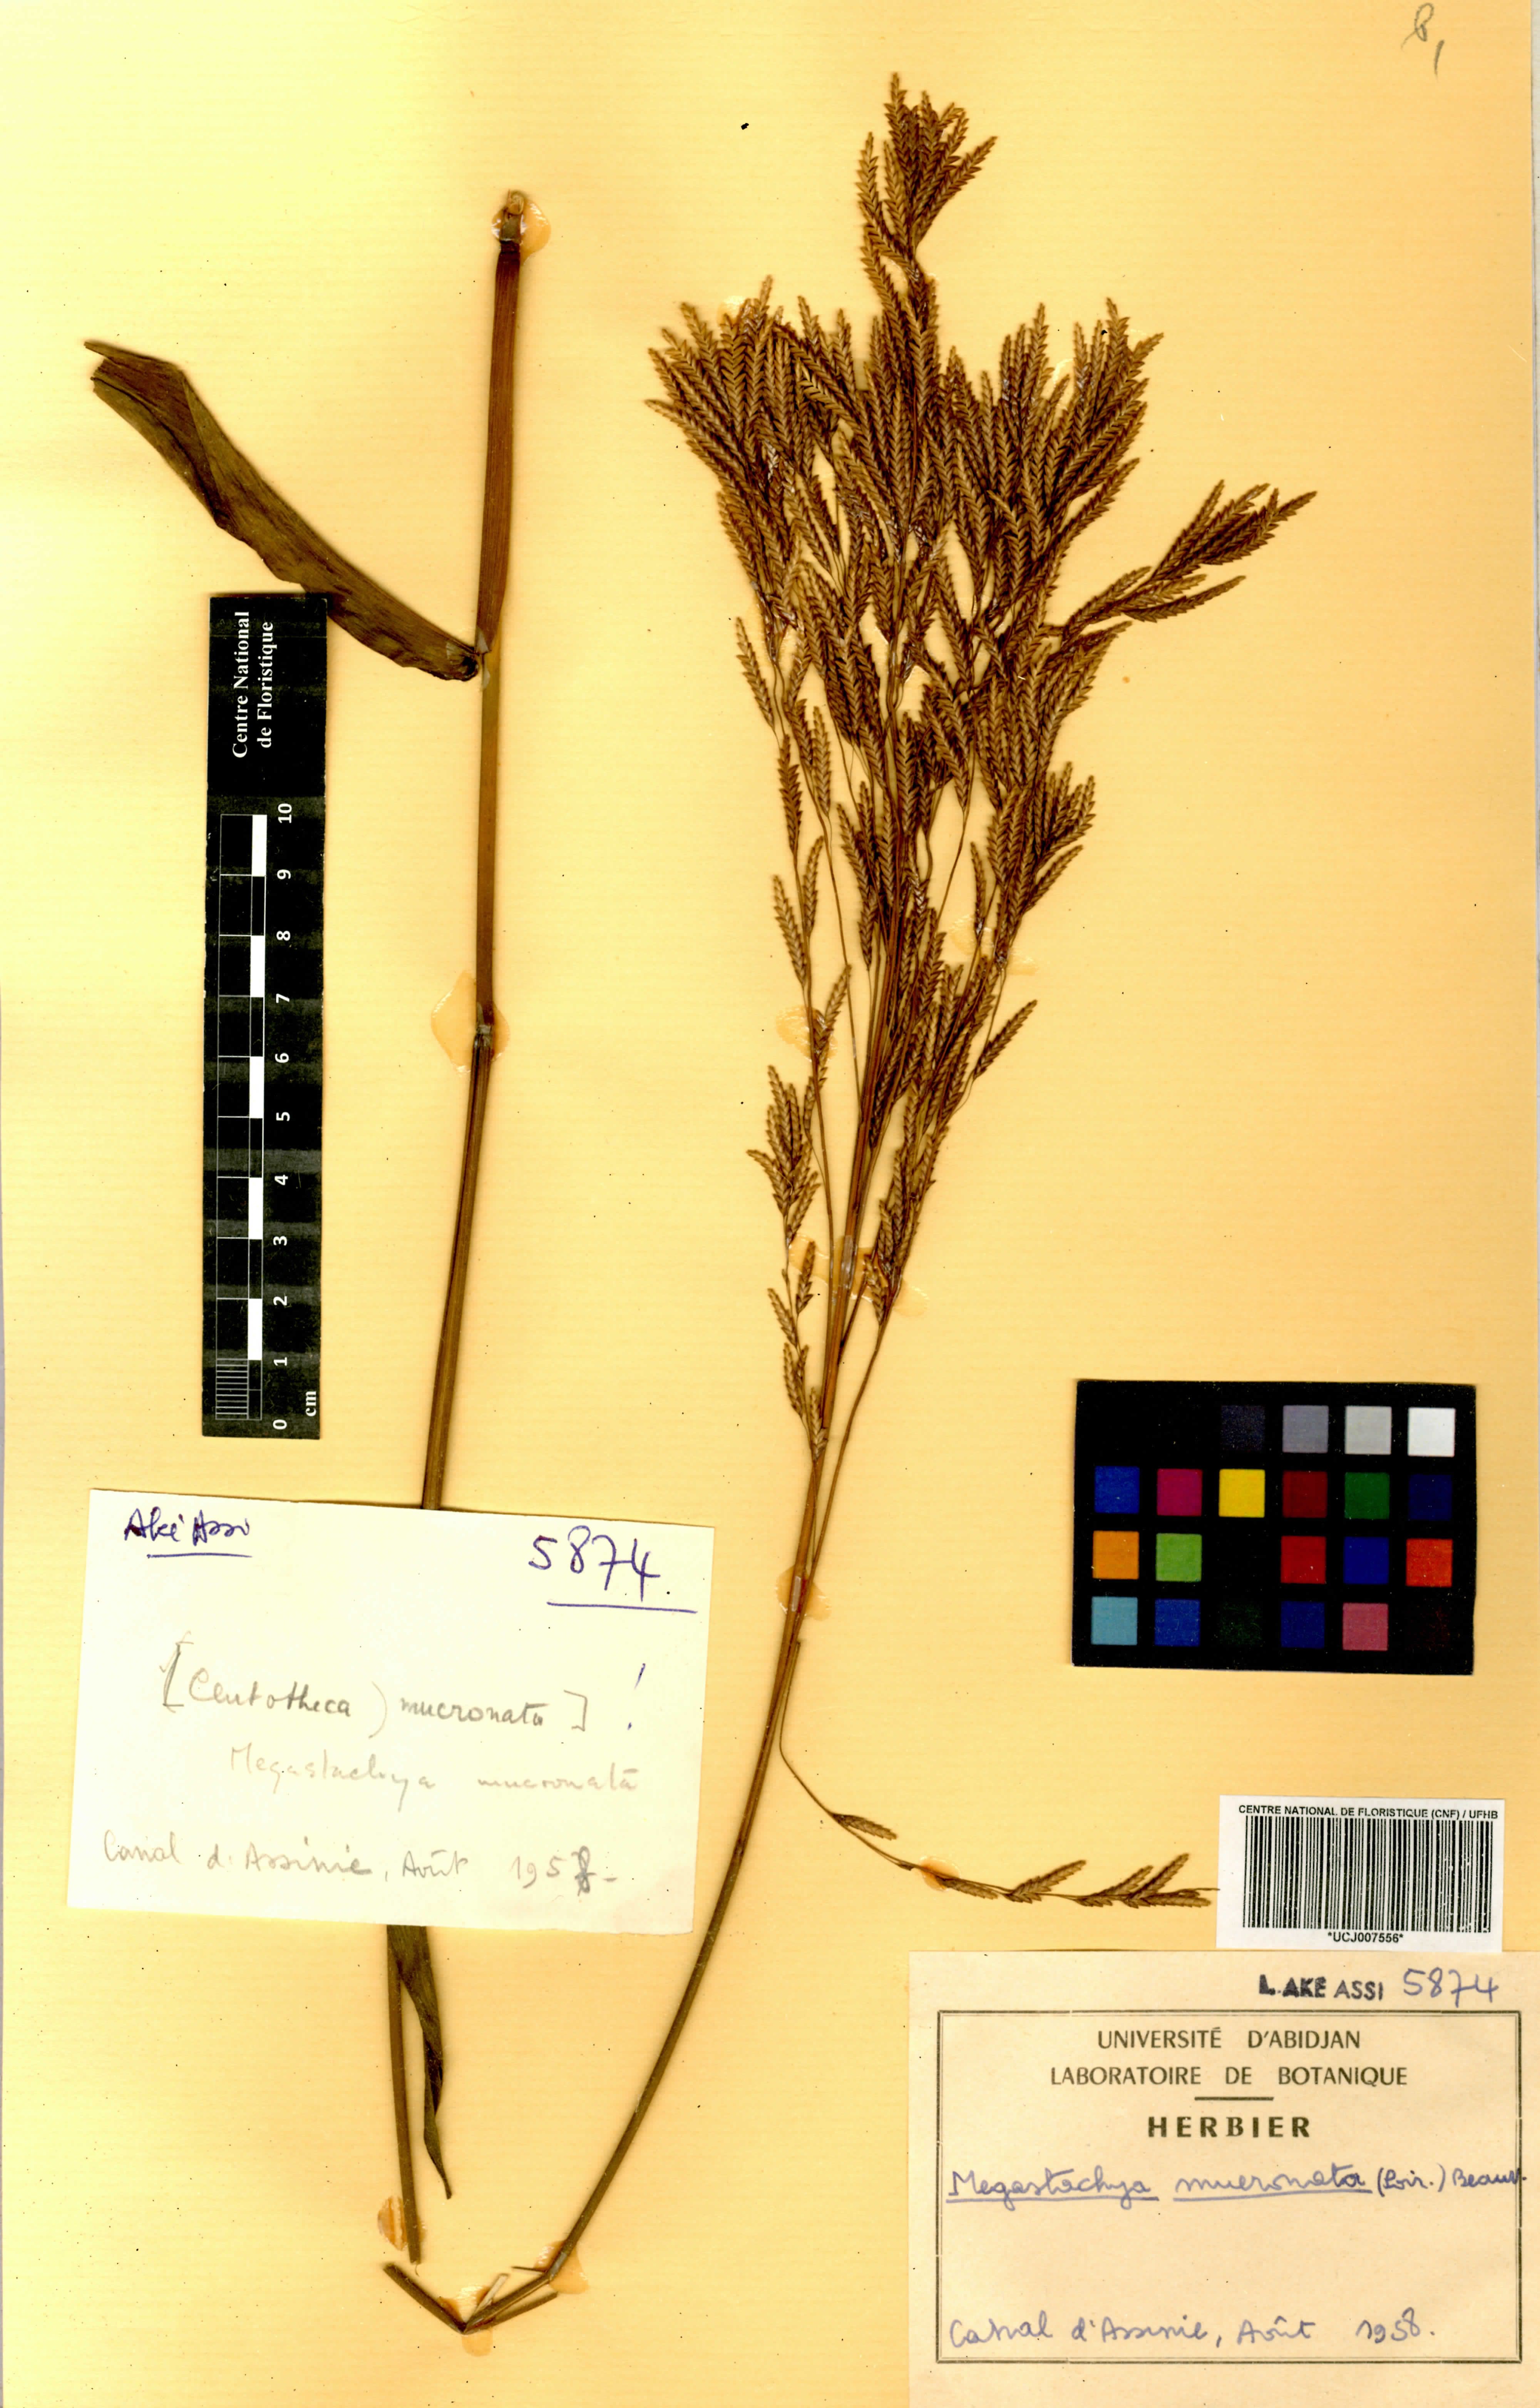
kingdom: Plantae
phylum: Tracheophyta
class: Liliopsida
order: Poales
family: Poaceae
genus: Megastachya
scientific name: Megastachya mucronata
